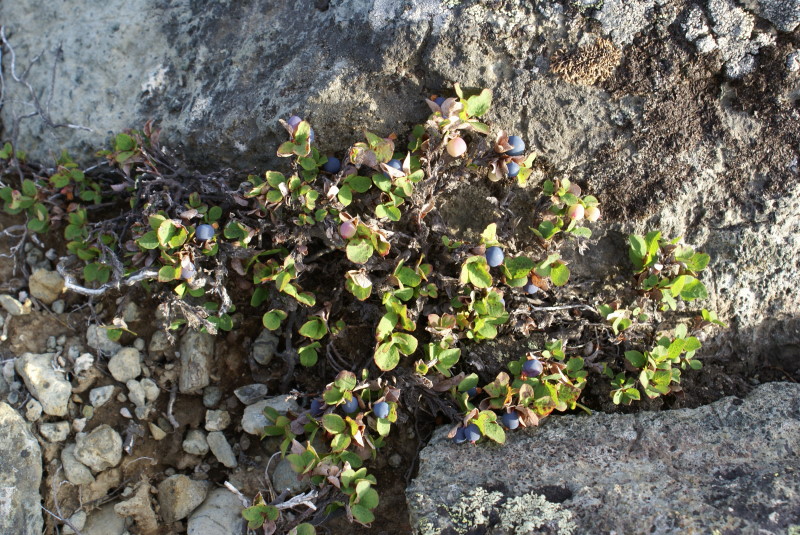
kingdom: Plantae
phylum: Tracheophyta
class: Magnoliopsida
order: Ericales
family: Ericaceae
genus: Vaccinium
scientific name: Vaccinium uliginosum
